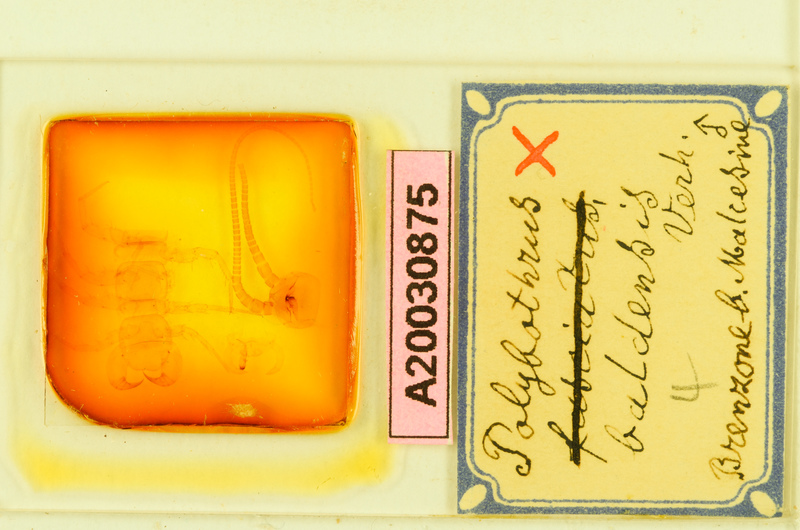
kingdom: Animalia
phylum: Arthropoda
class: Chilopoda
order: Lithobiomorpha
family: Lithobiidae
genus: Eupolybothrus
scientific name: Eupolybothrus grossipes
